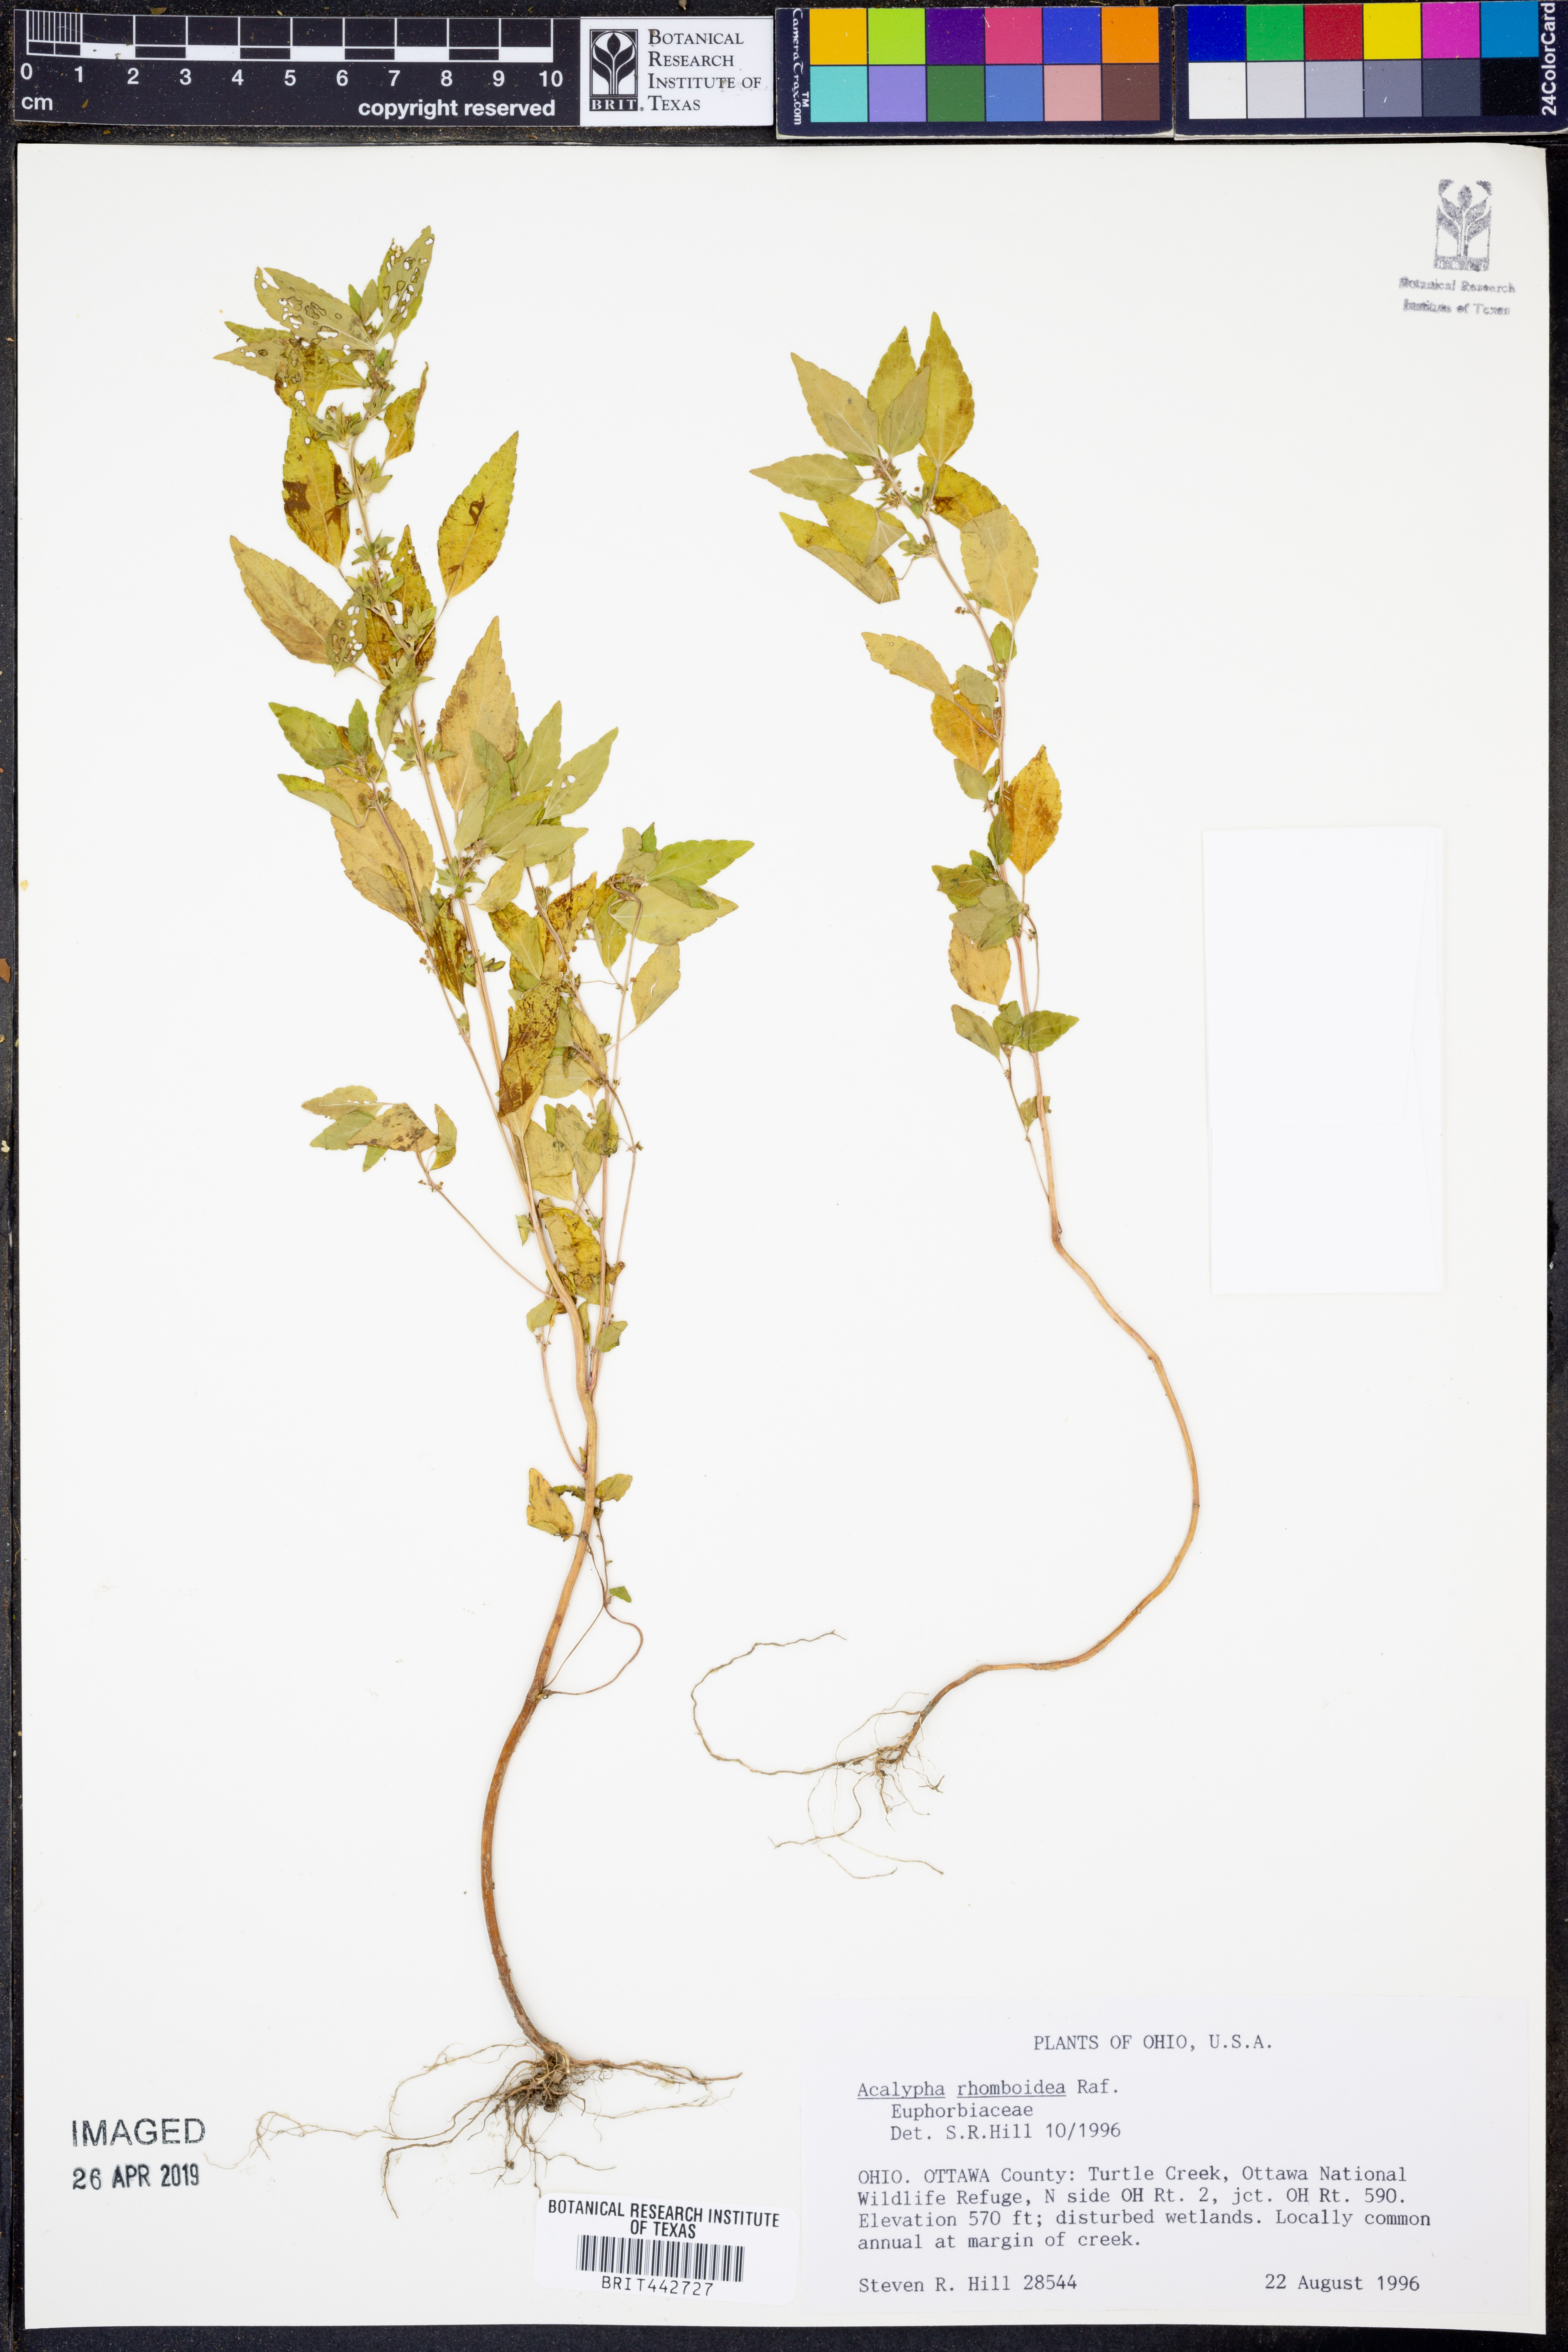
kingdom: Plantae
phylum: Tracheophyta
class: Magnoliopsida
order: Malpighiales
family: Euphorbiaceae
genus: Acalypha
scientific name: Acalypha rhomboidea
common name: Rhombic copperleaf
